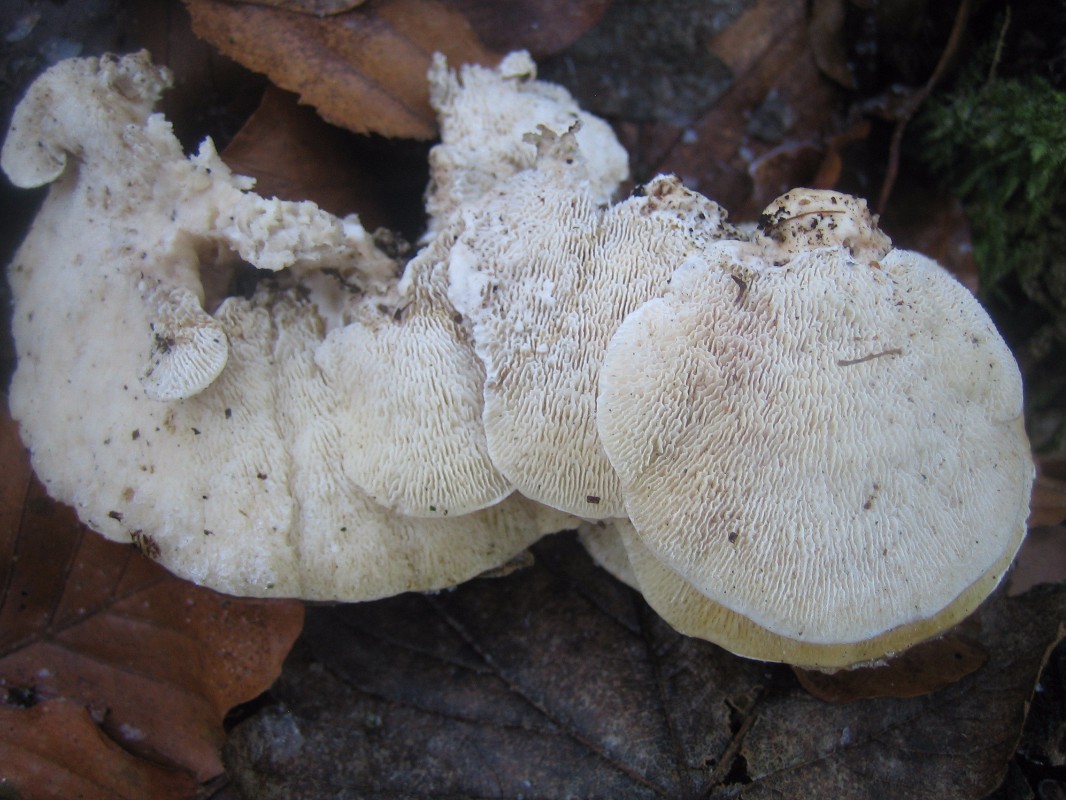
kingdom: Fungi
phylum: Basidiomycota
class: Agaricomycetes
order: Polyporales
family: Polyporaceae
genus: Trametes
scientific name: Trametes gibbosa
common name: puklet læderporesvamp
